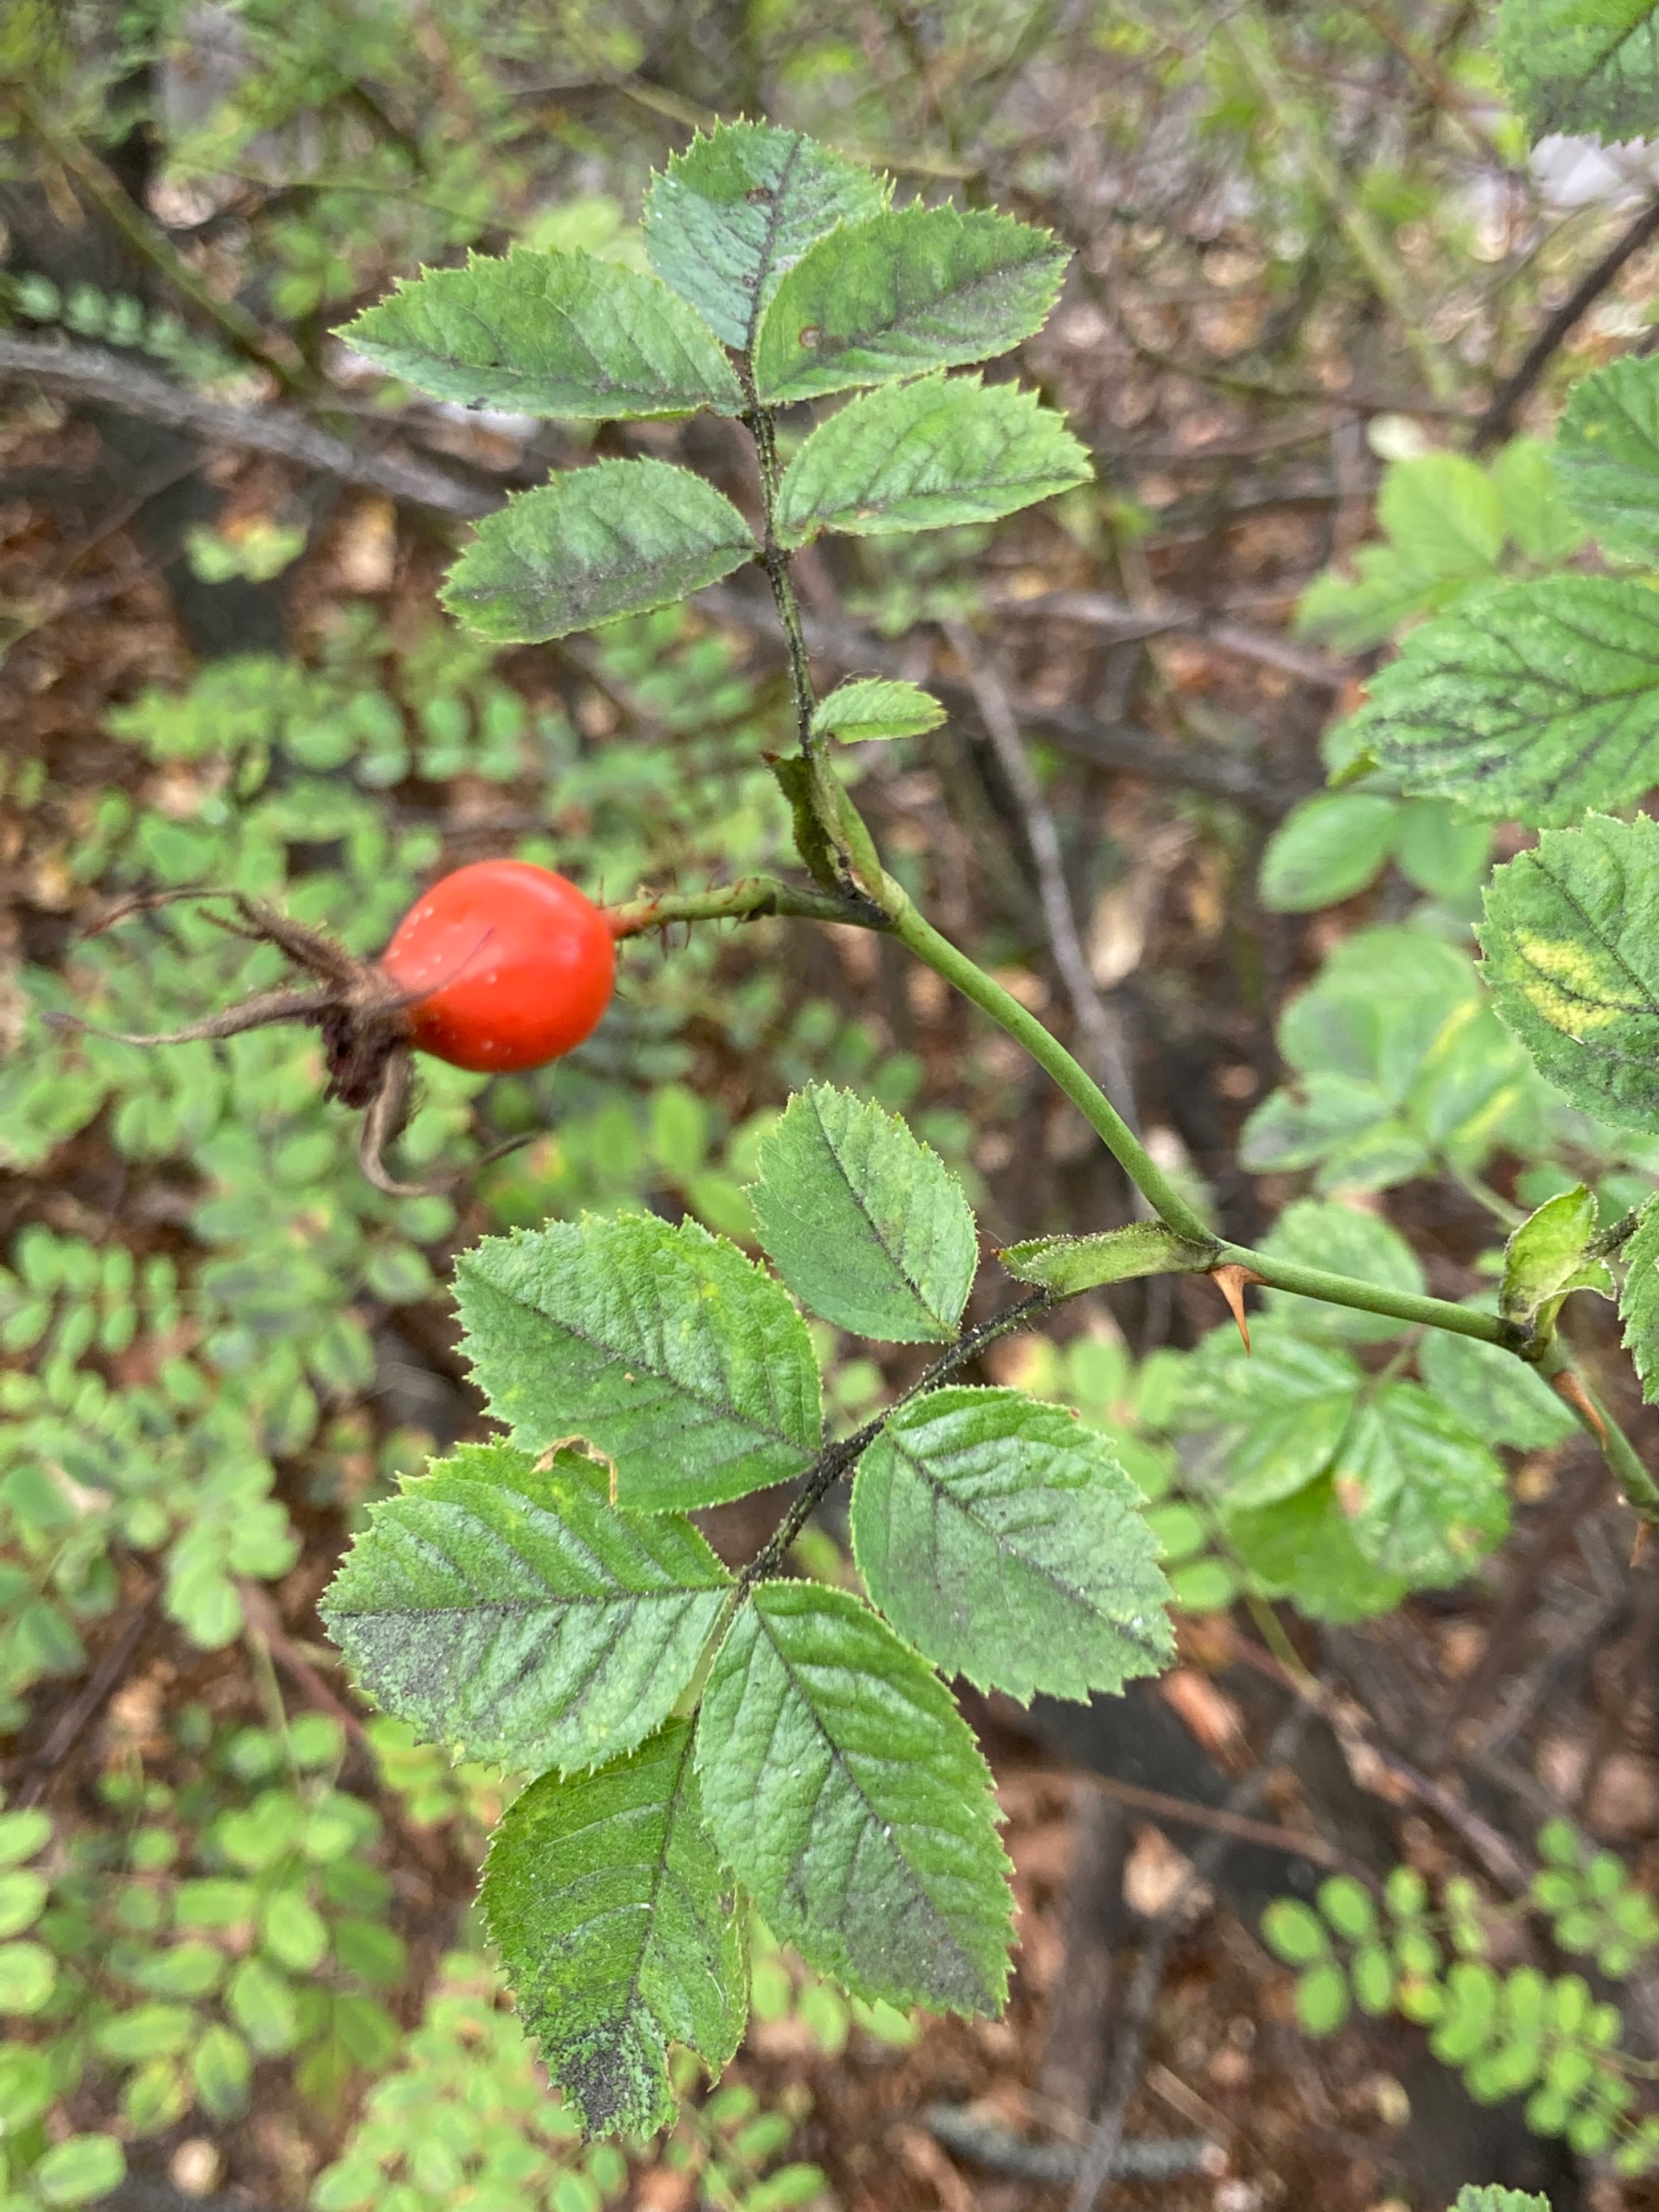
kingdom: Plantae
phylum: Tracheophyta
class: Magnoliopsida
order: Rosales
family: Rosaceae
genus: Rosa
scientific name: Rosa rubiginosa
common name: Æble-rose
